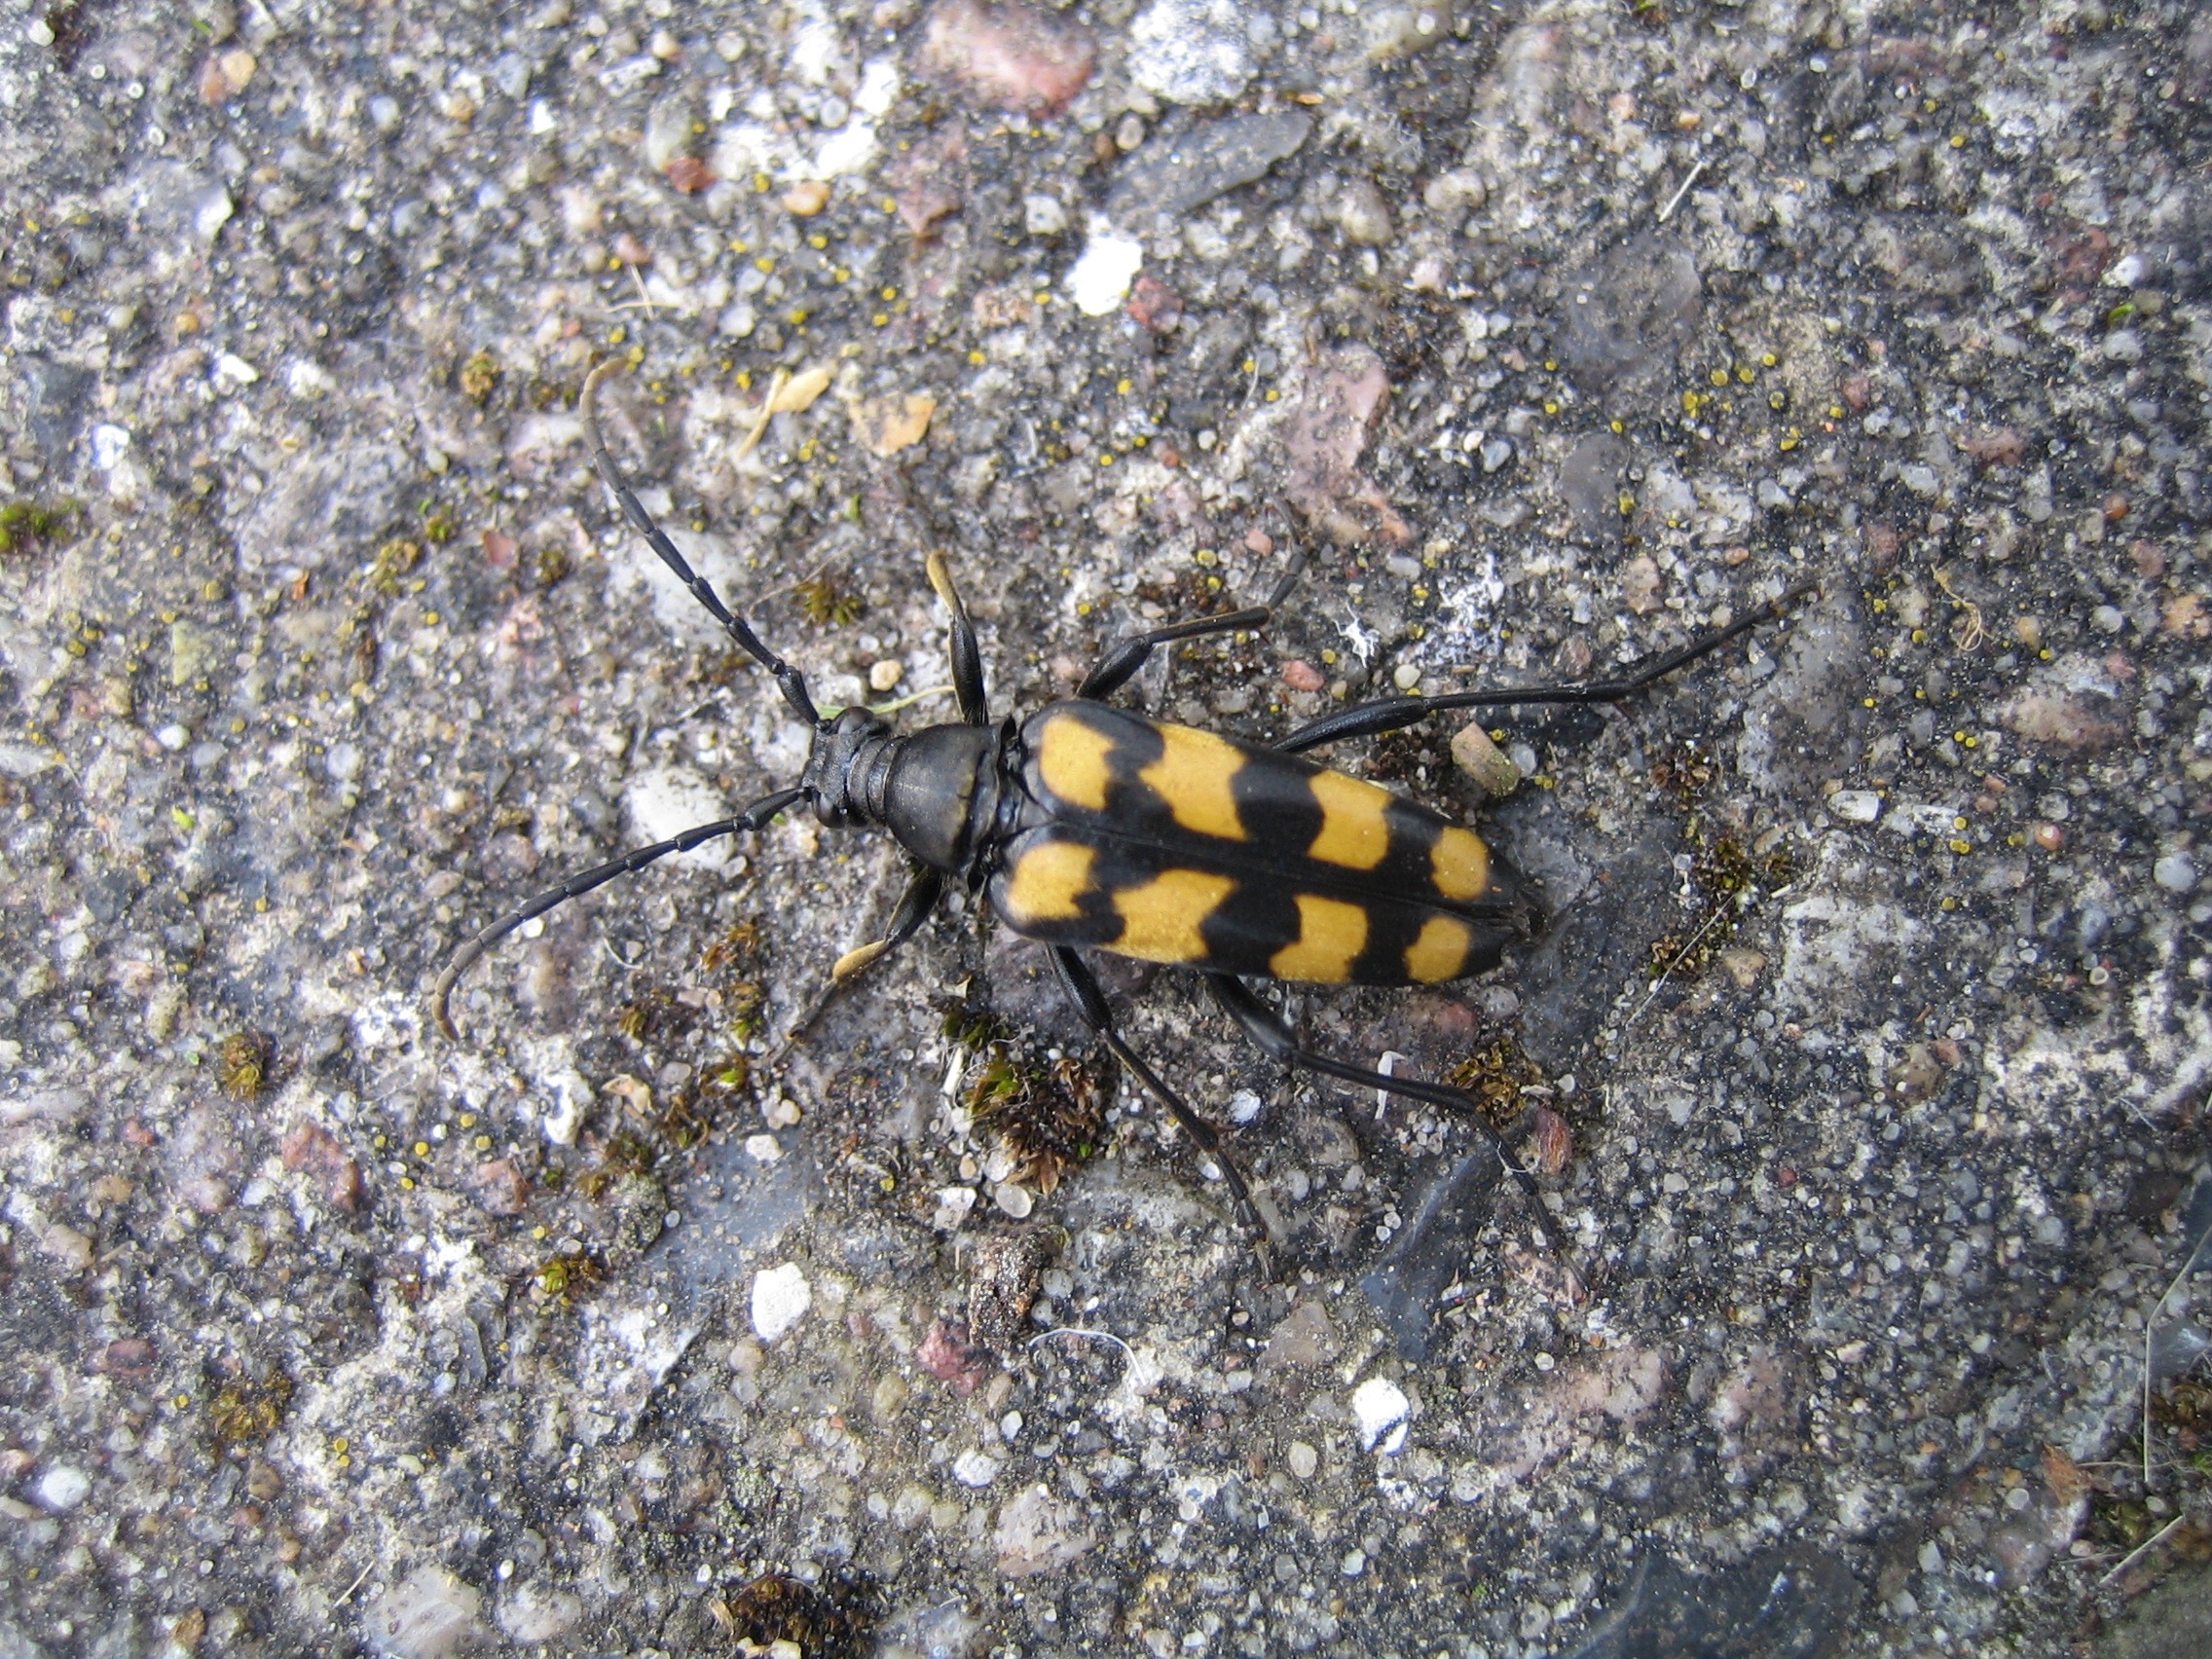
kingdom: Animalia
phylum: Arthropoda
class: Insecta
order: Coleoptera
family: Cerambycidae
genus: Leptura
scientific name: Leptura quadrifasciata
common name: Firebåndet blomsterbuk
